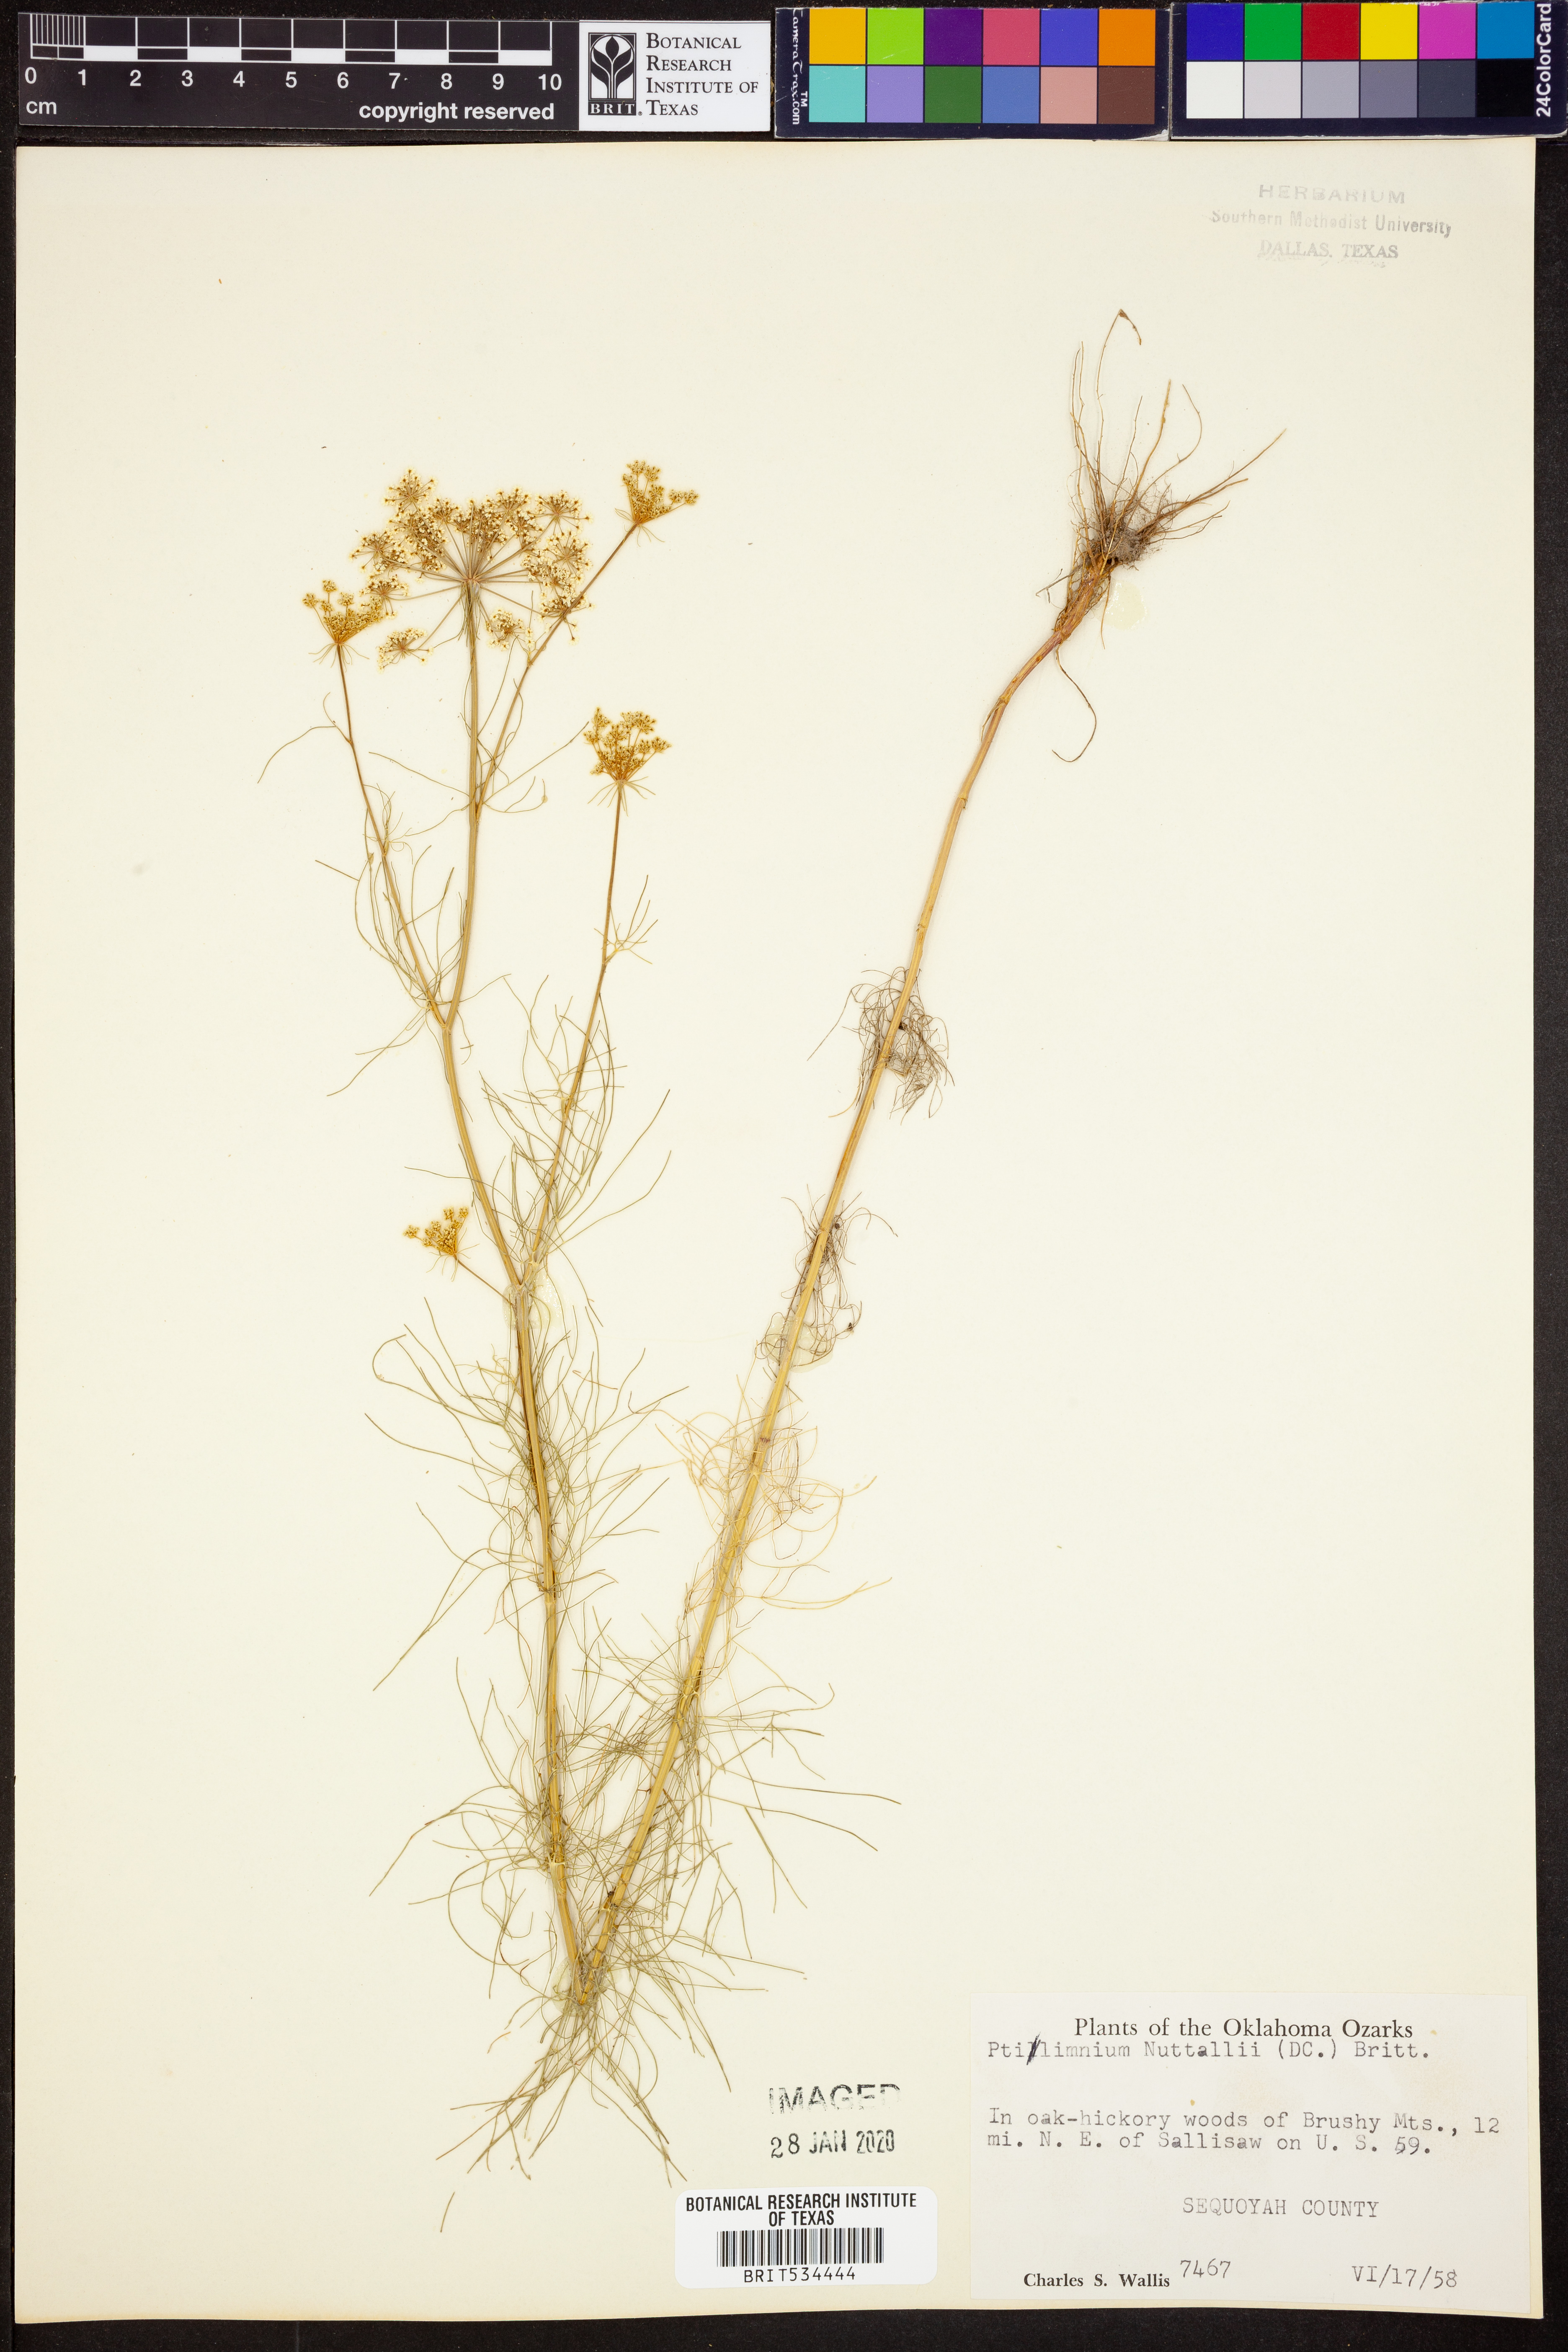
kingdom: Plantae
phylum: Tracheophyta
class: Magnoliopsida
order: Apiales
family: Apiaceae
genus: Ptilimnium
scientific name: Ptilimnium nuttallii
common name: Ozark bishop's-weed
